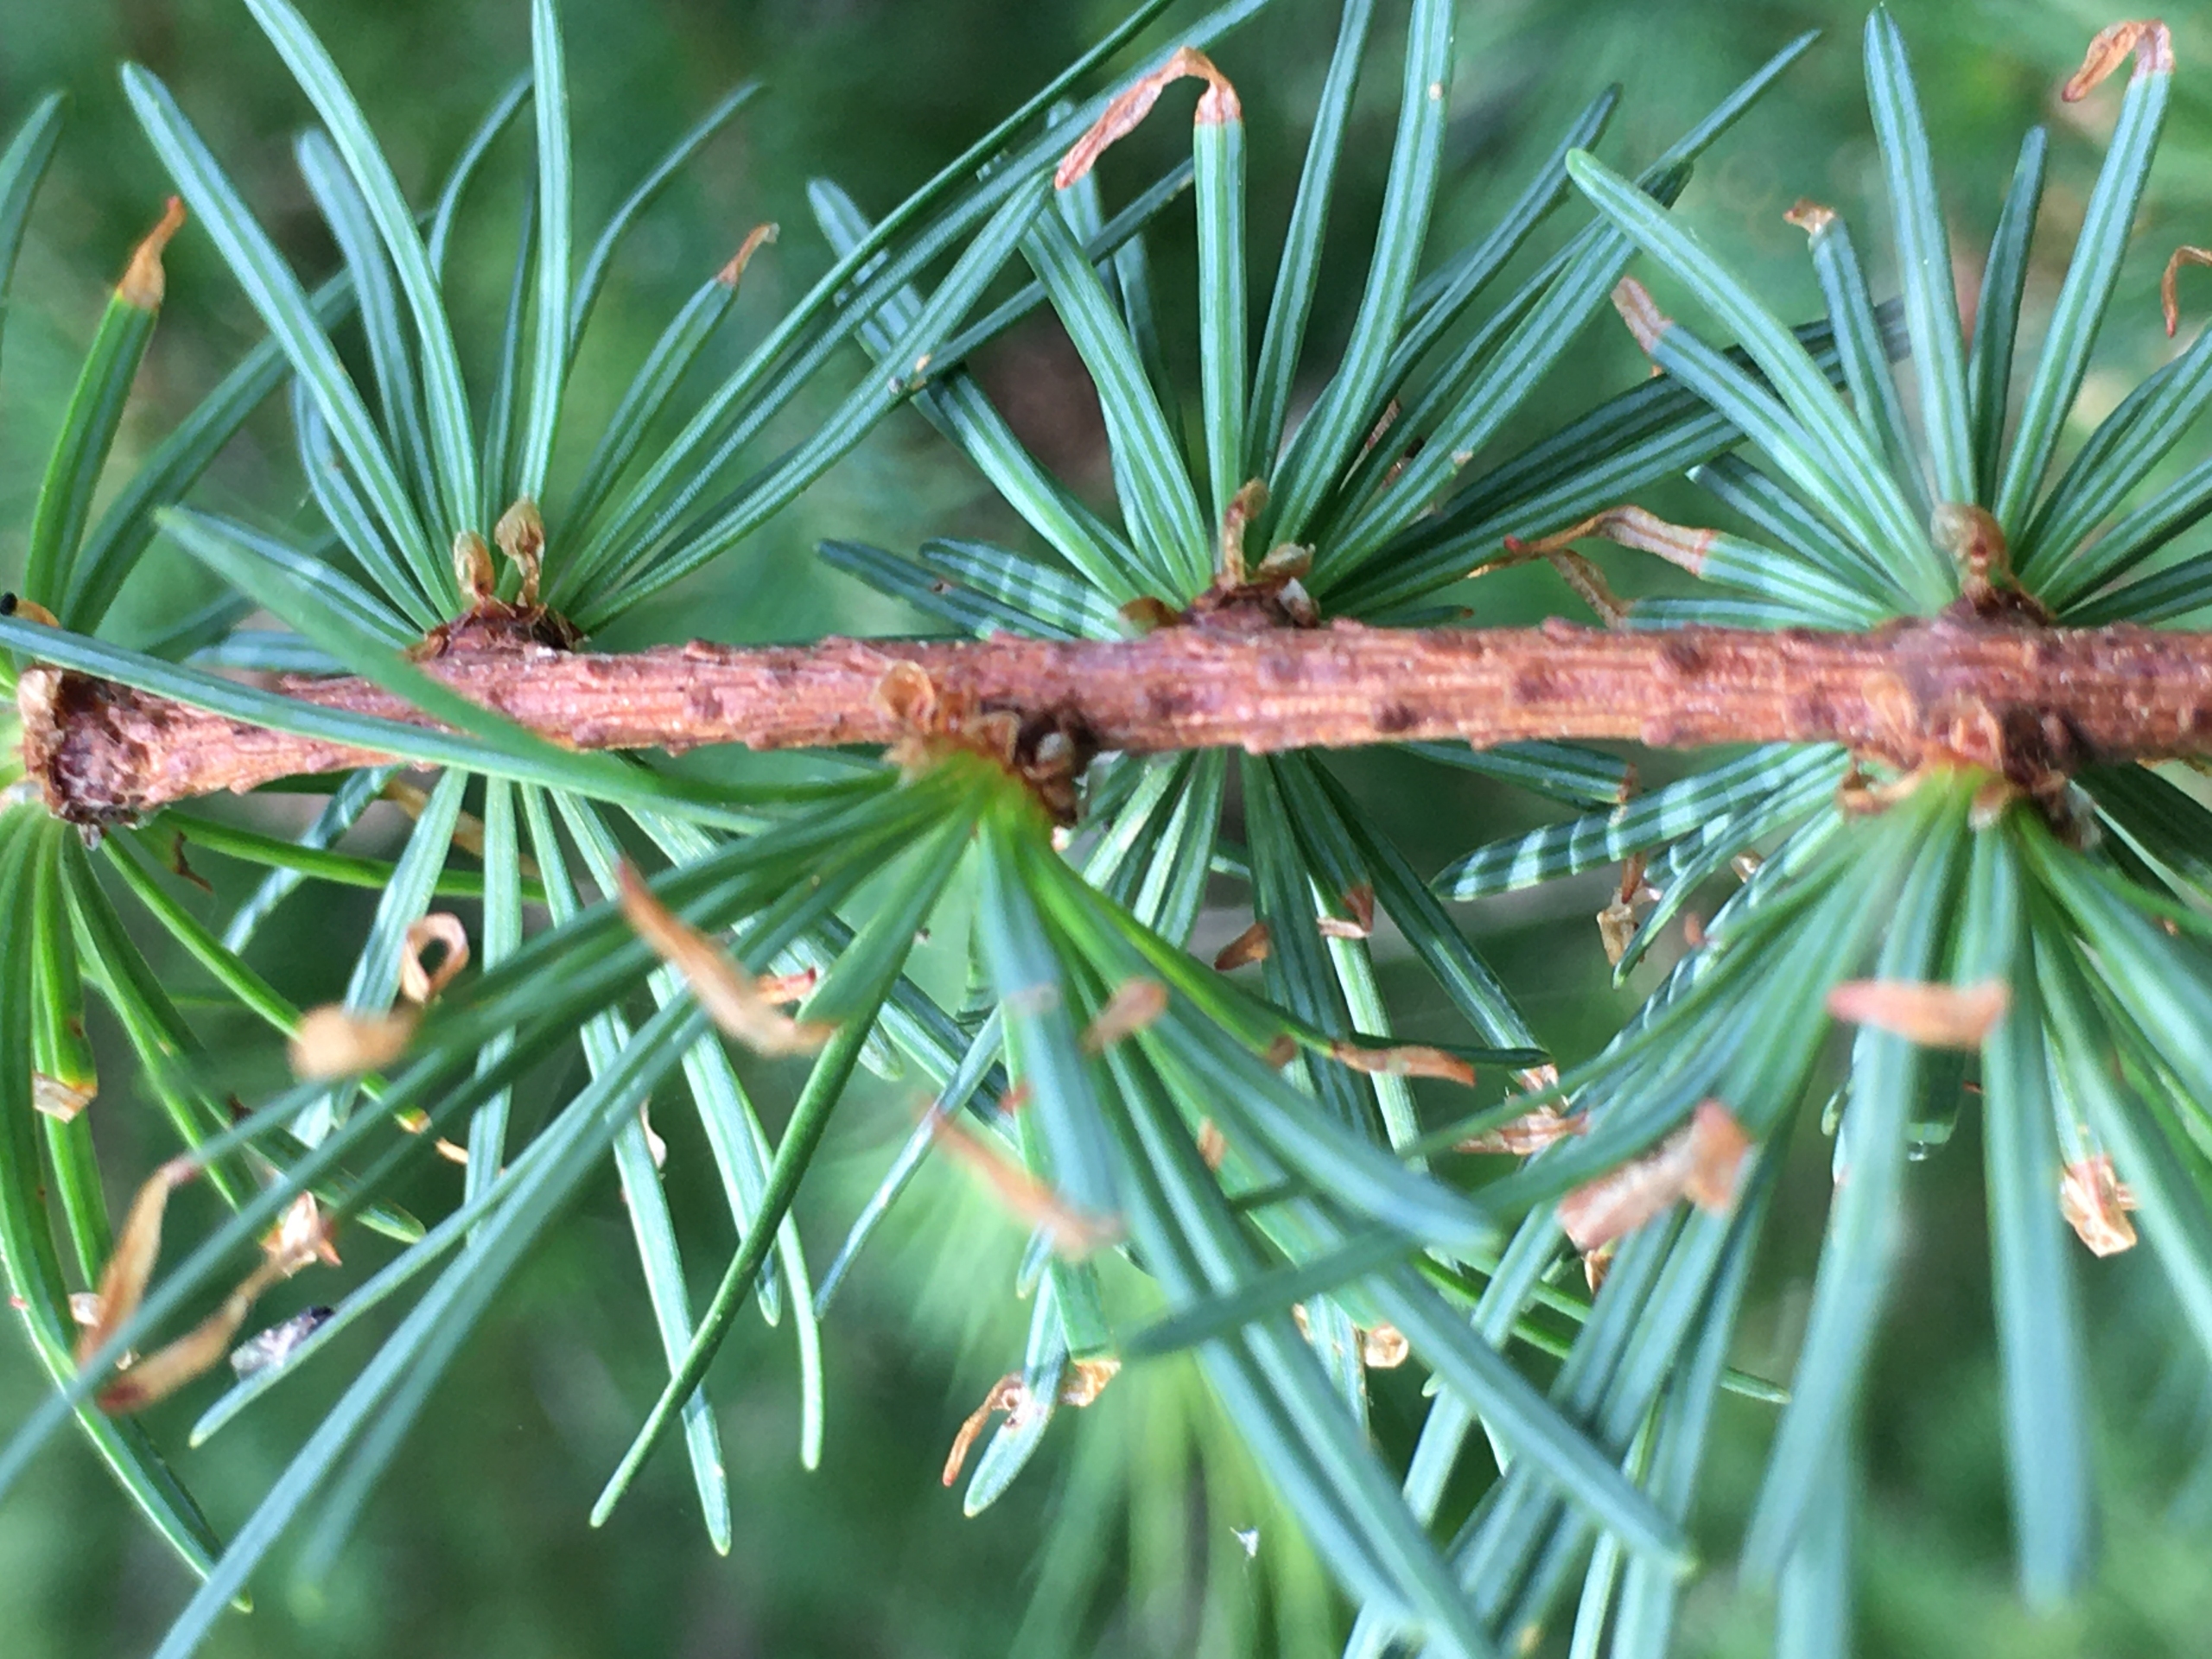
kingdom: Plantae
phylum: Tracheophyta
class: Pinopsida
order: Pinales
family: Pinaceae
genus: Larix
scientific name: Larix marschlinsii
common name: Hybrid-lærk
